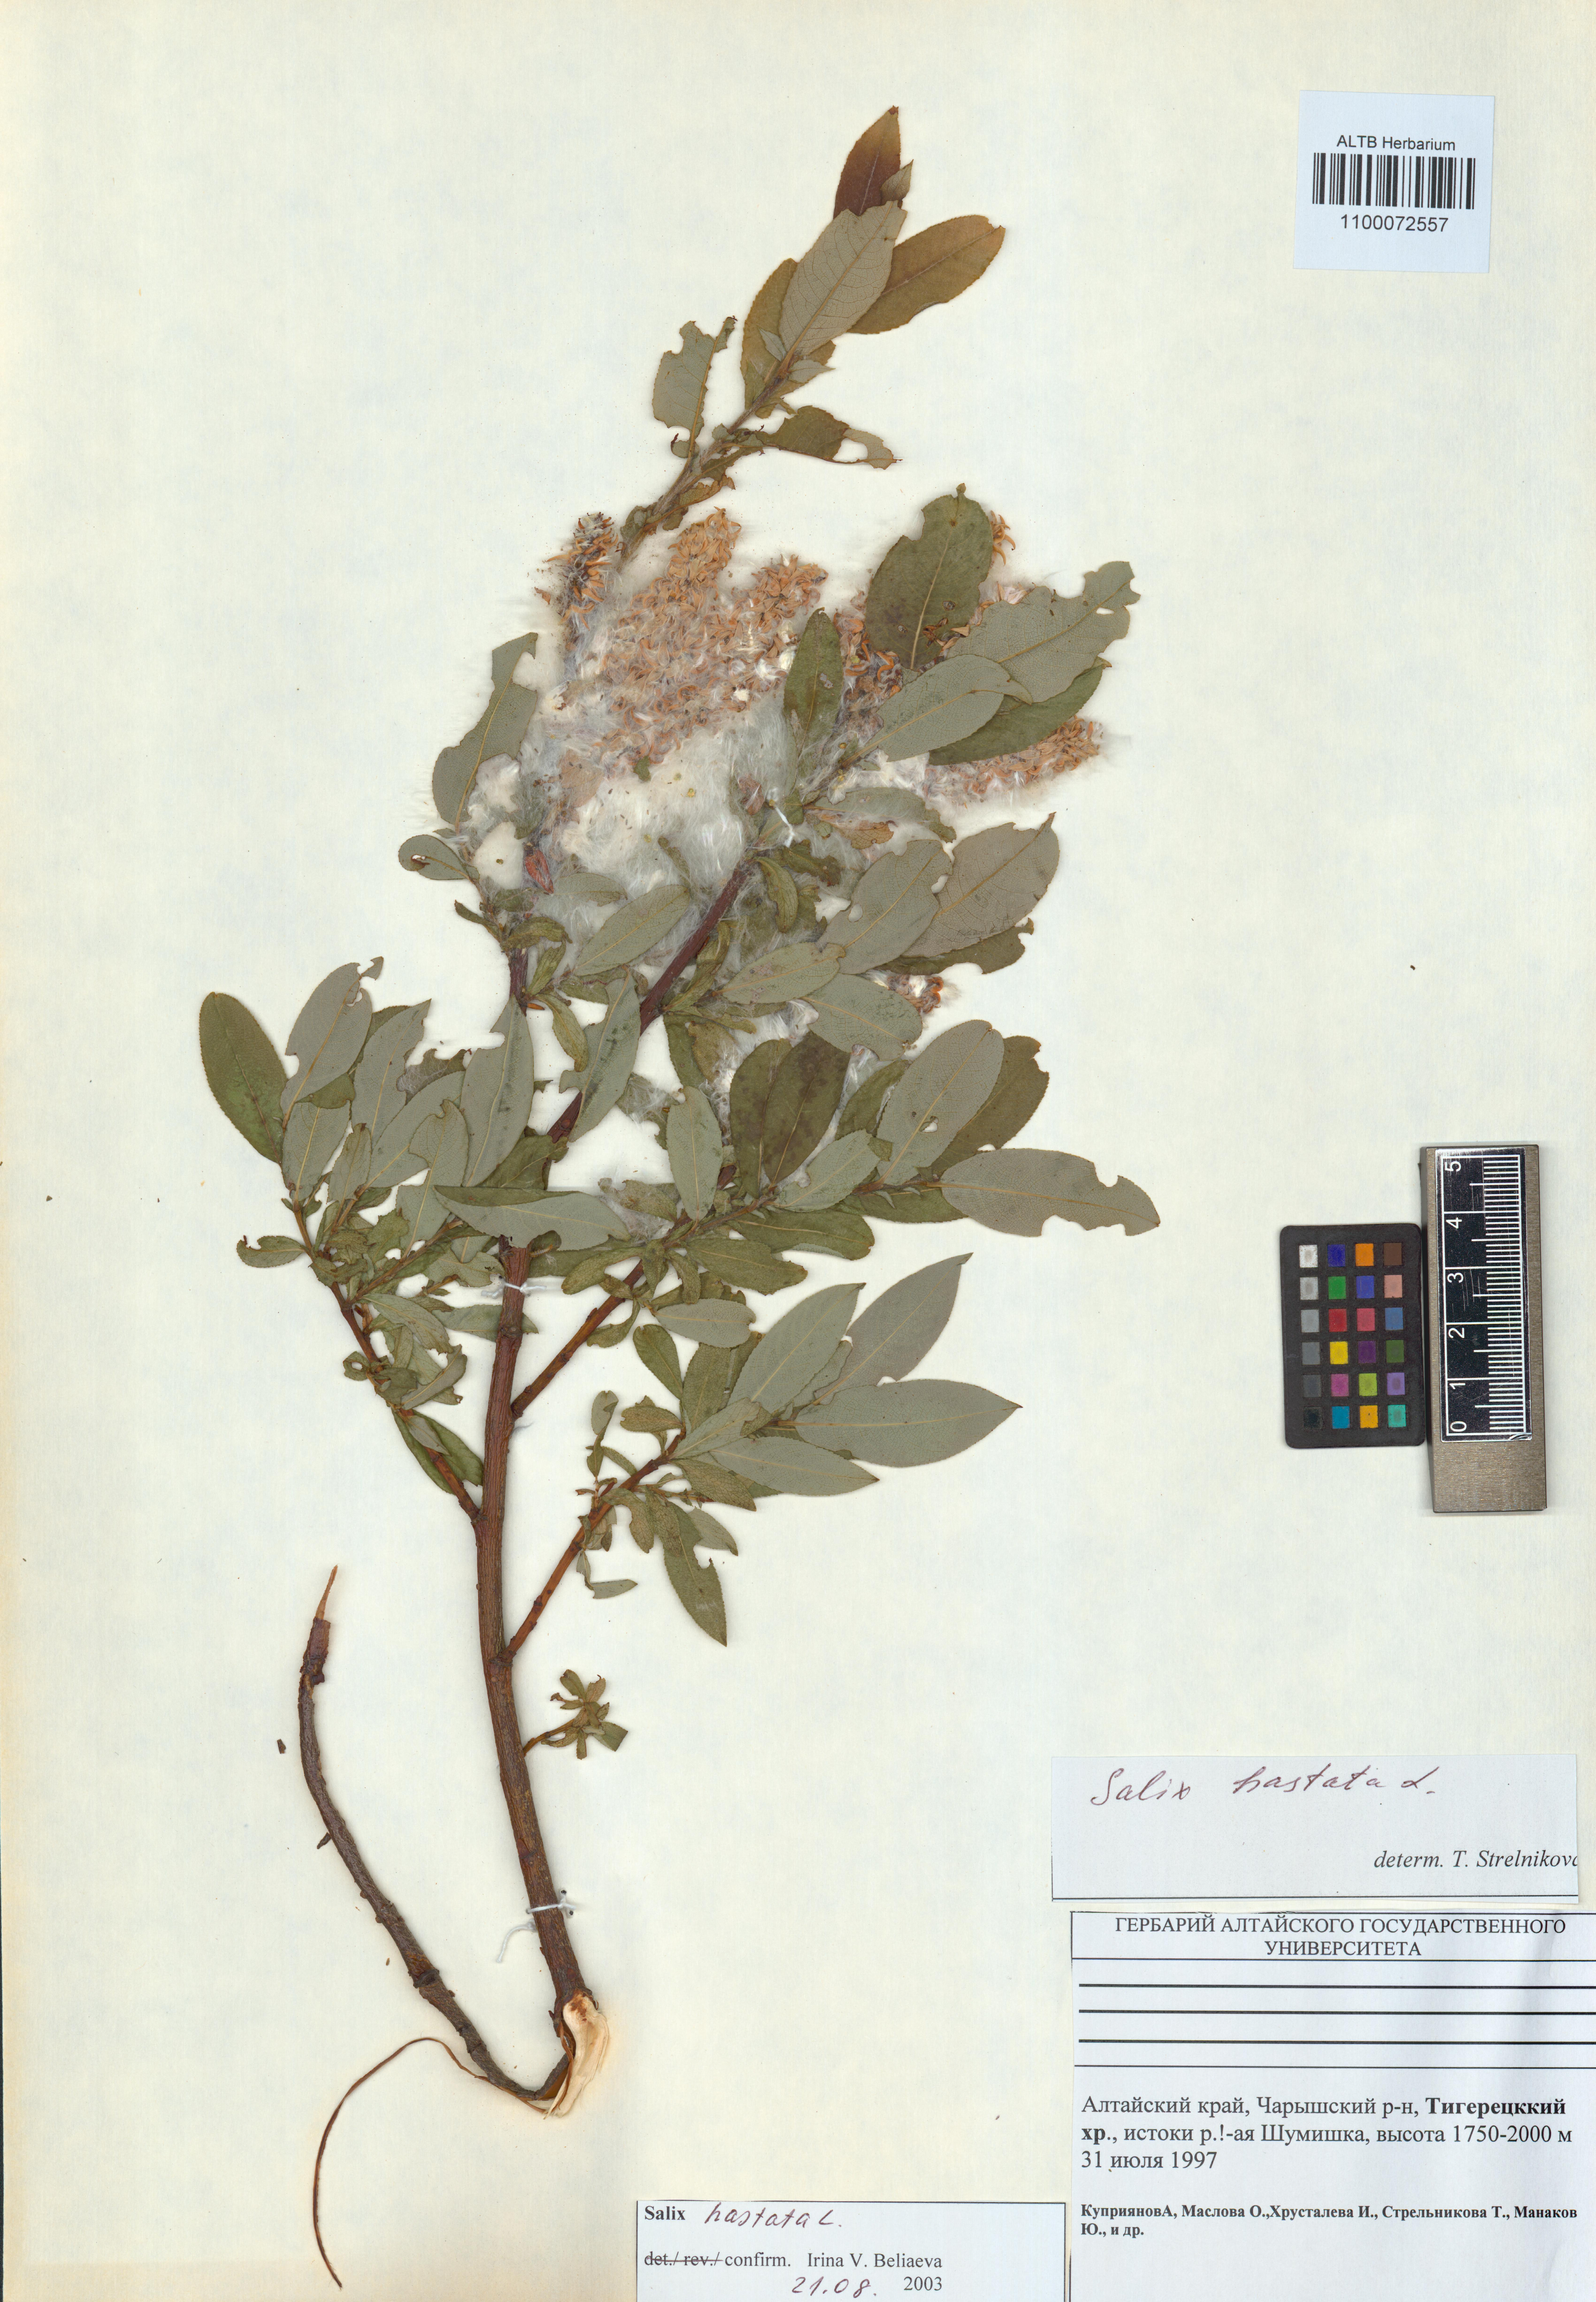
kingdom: Plantae
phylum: Tracheophyta
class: Magnoliopsida
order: Malpighiales
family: Salicaceae
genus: Salix
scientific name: Salix hastata
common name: Halberd willow
